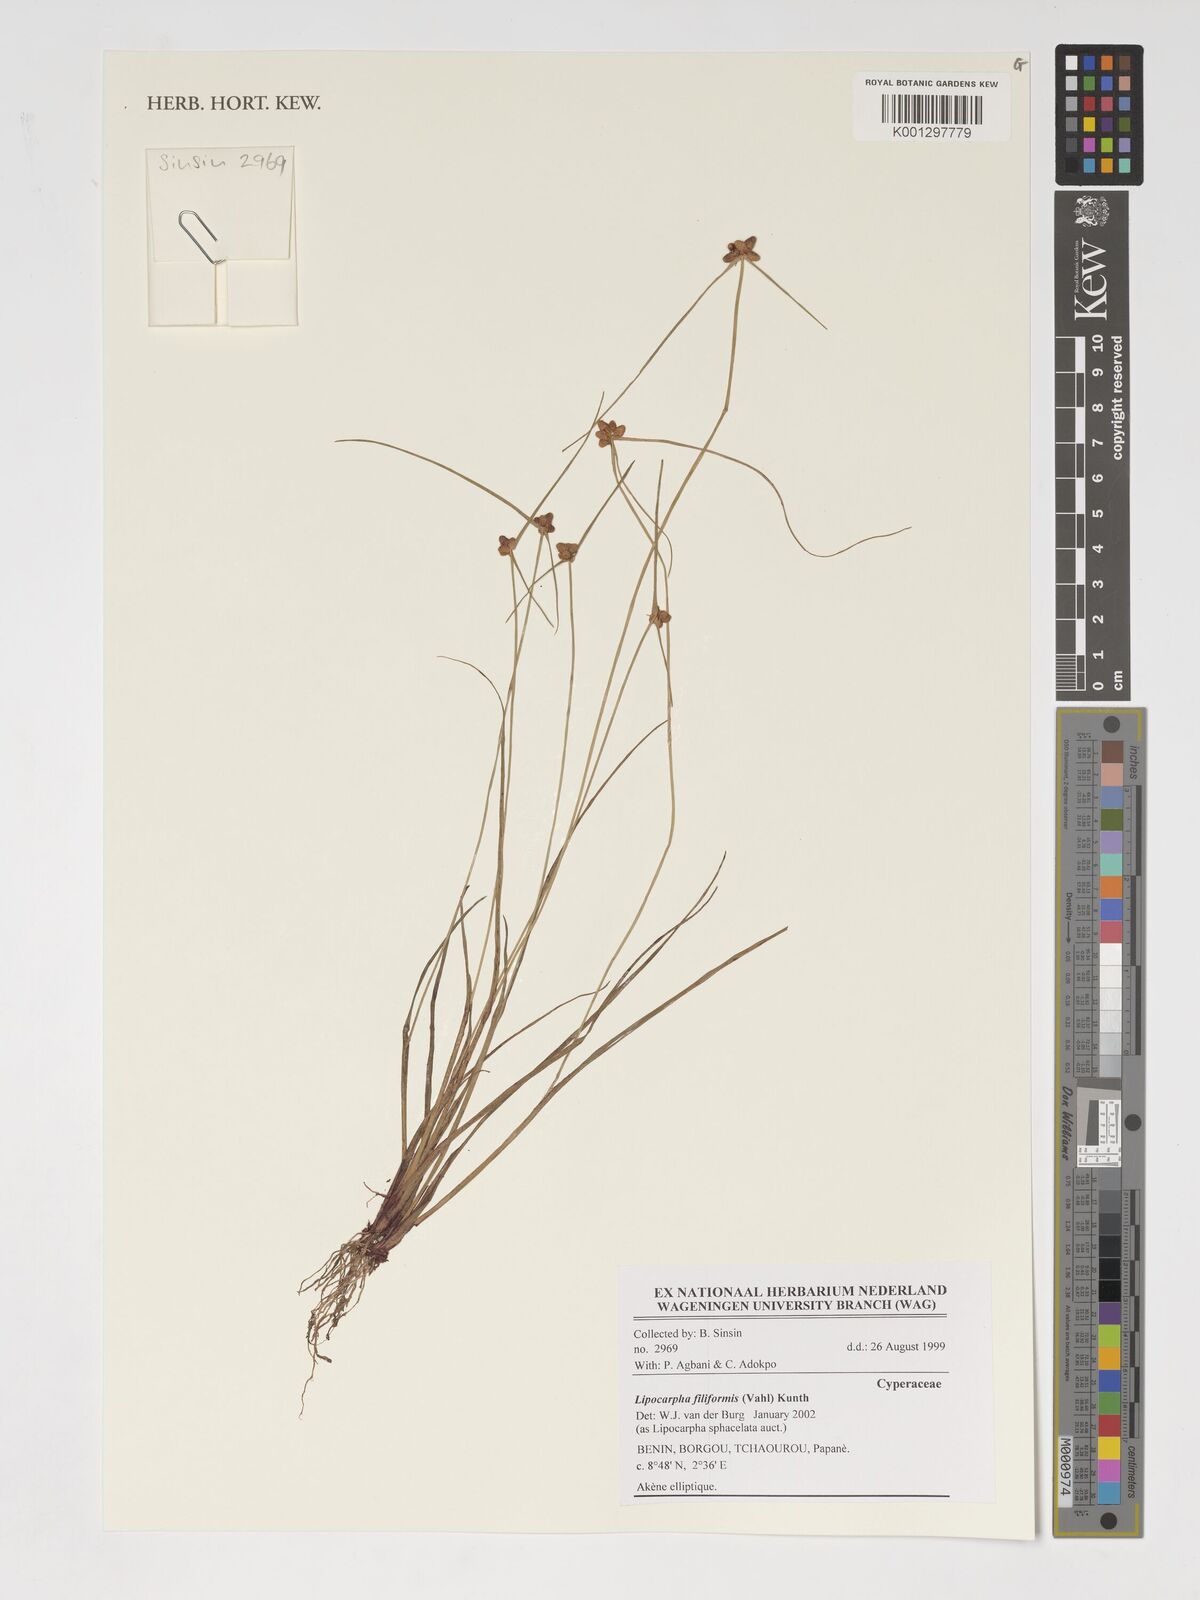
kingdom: Plantae
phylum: Tracheophyta
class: Liliopsida
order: Poales
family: Cyperaceae
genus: Cyperus
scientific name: Cyperus lipofiliformis
